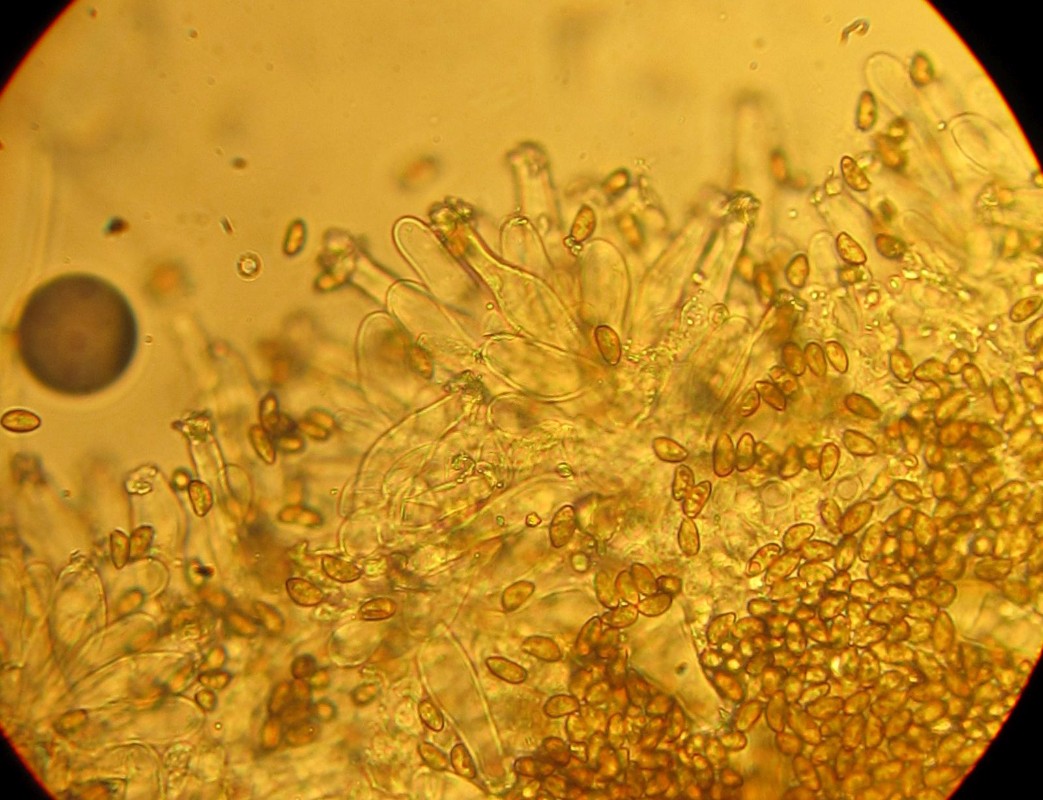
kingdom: Fungi
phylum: Basidiomycota
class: Agaricomycetes
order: Agaricales
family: Inocybaceae
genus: Inocybe
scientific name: Inocybe
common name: trævlhat
